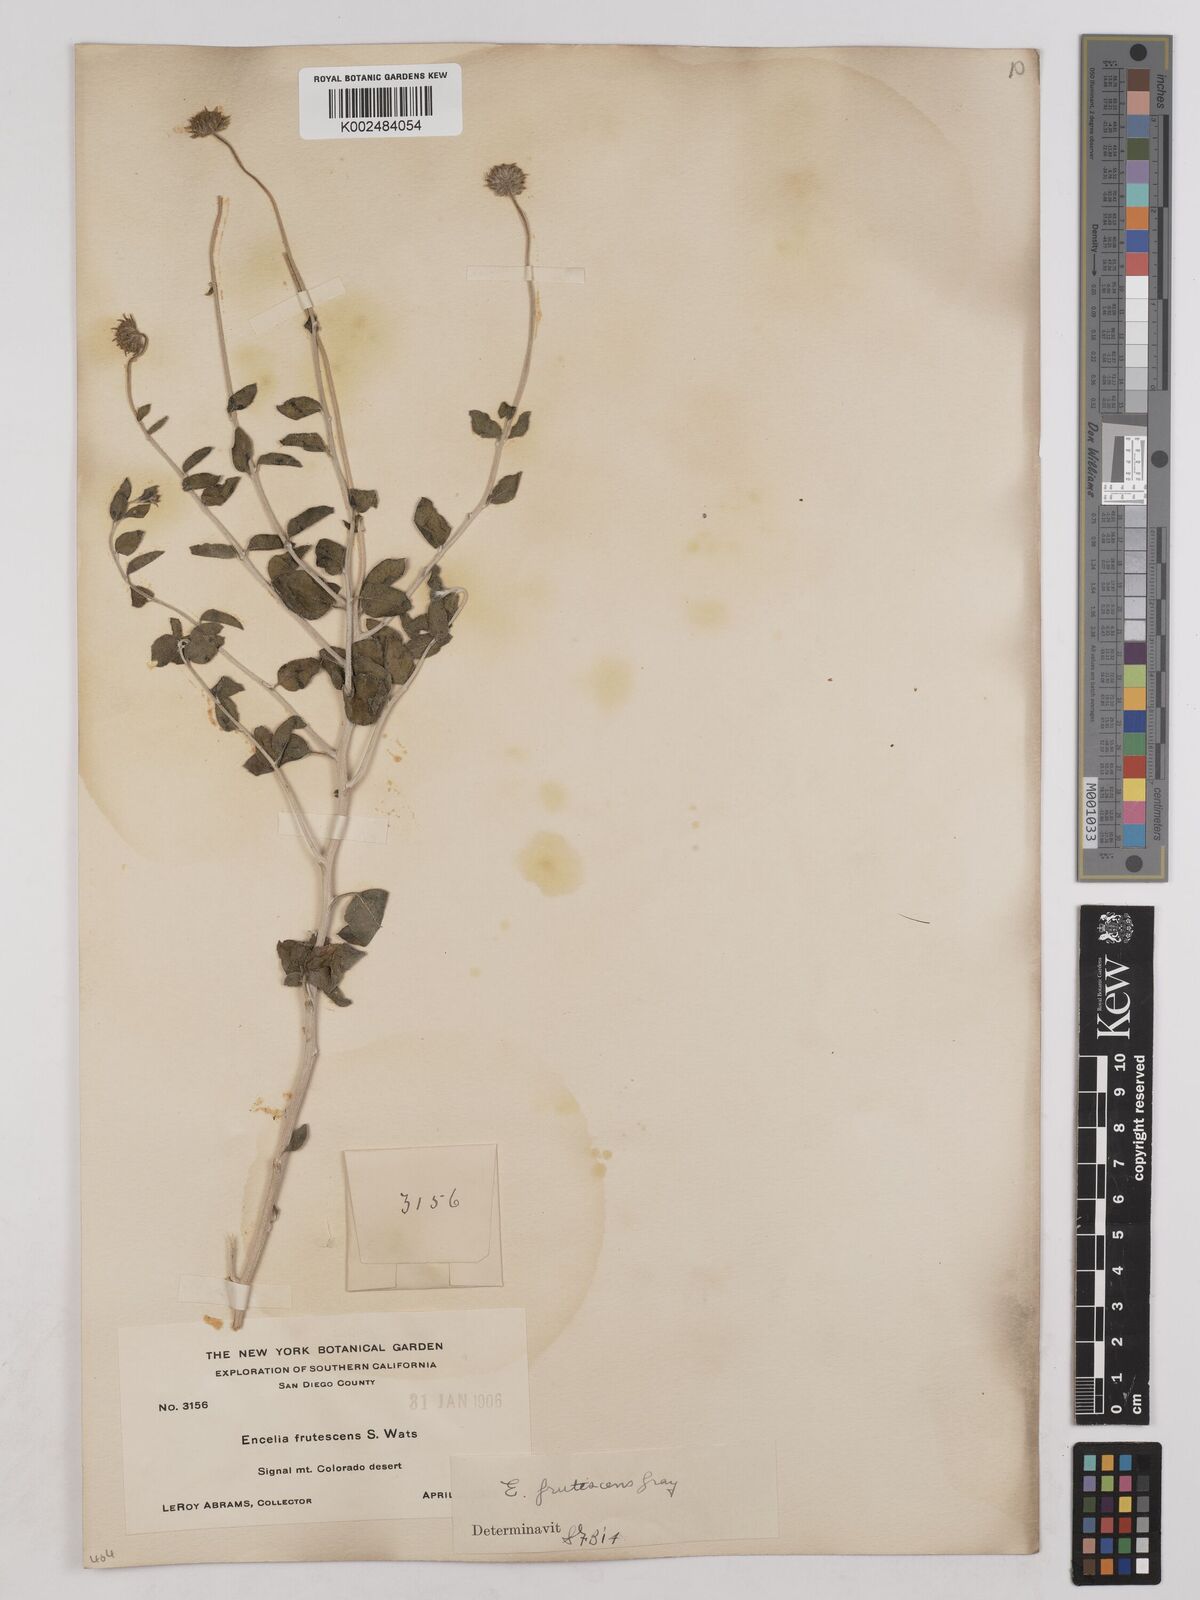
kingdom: Plantae
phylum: Tracheophyta
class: Magnoliopsida
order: Asterales
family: Asteraceae
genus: Encelia
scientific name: Encelia frutescens
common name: Bush encelia
